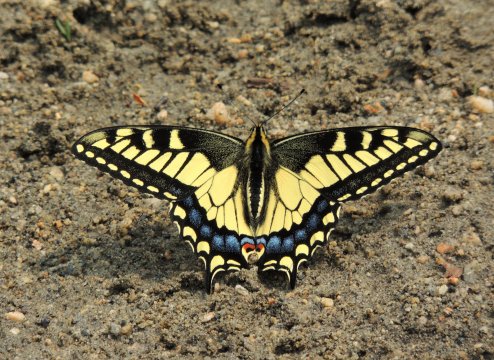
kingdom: Animalia
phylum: Arthropoda
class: Insecta
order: Lepidoptera
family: Papilionidae
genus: Papilio
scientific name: Papilio machaon
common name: Old World Swallowtail
